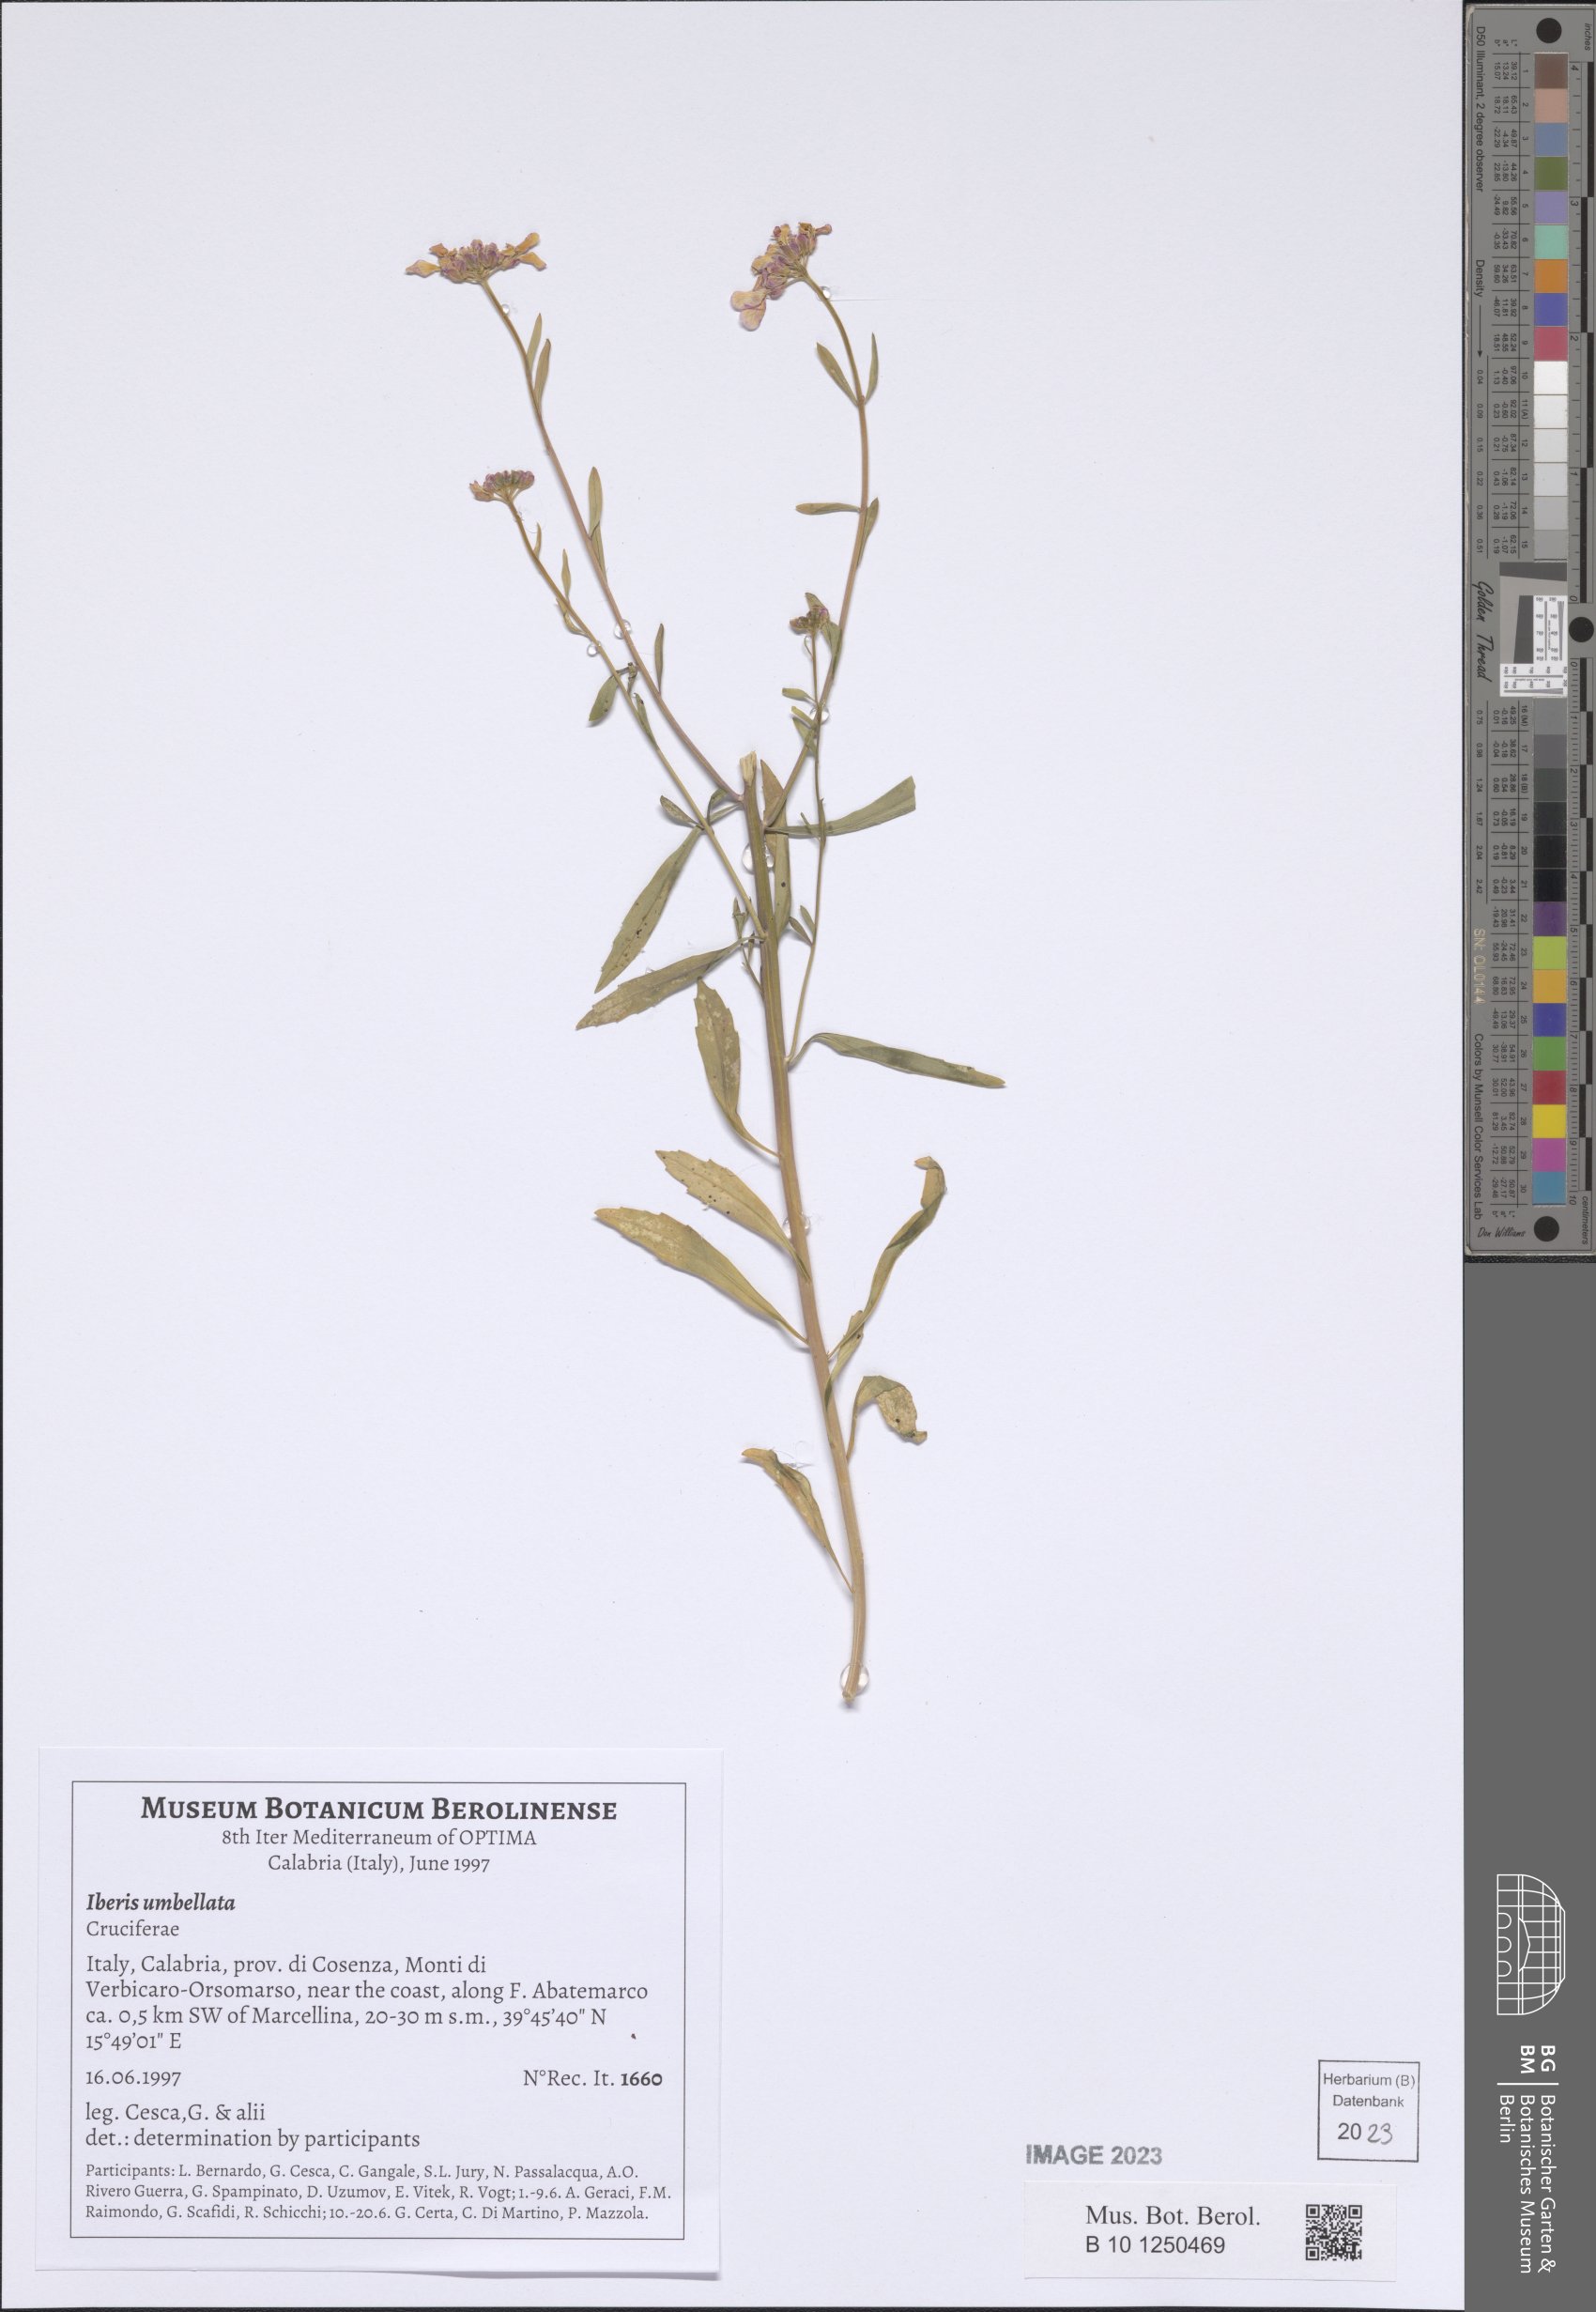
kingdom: Plantae
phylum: Tracheophyta
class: Magnoliopsida
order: Brassicales
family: Brassicaceae
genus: Iberis
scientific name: Iberis umbellata
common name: Globe candytuft
